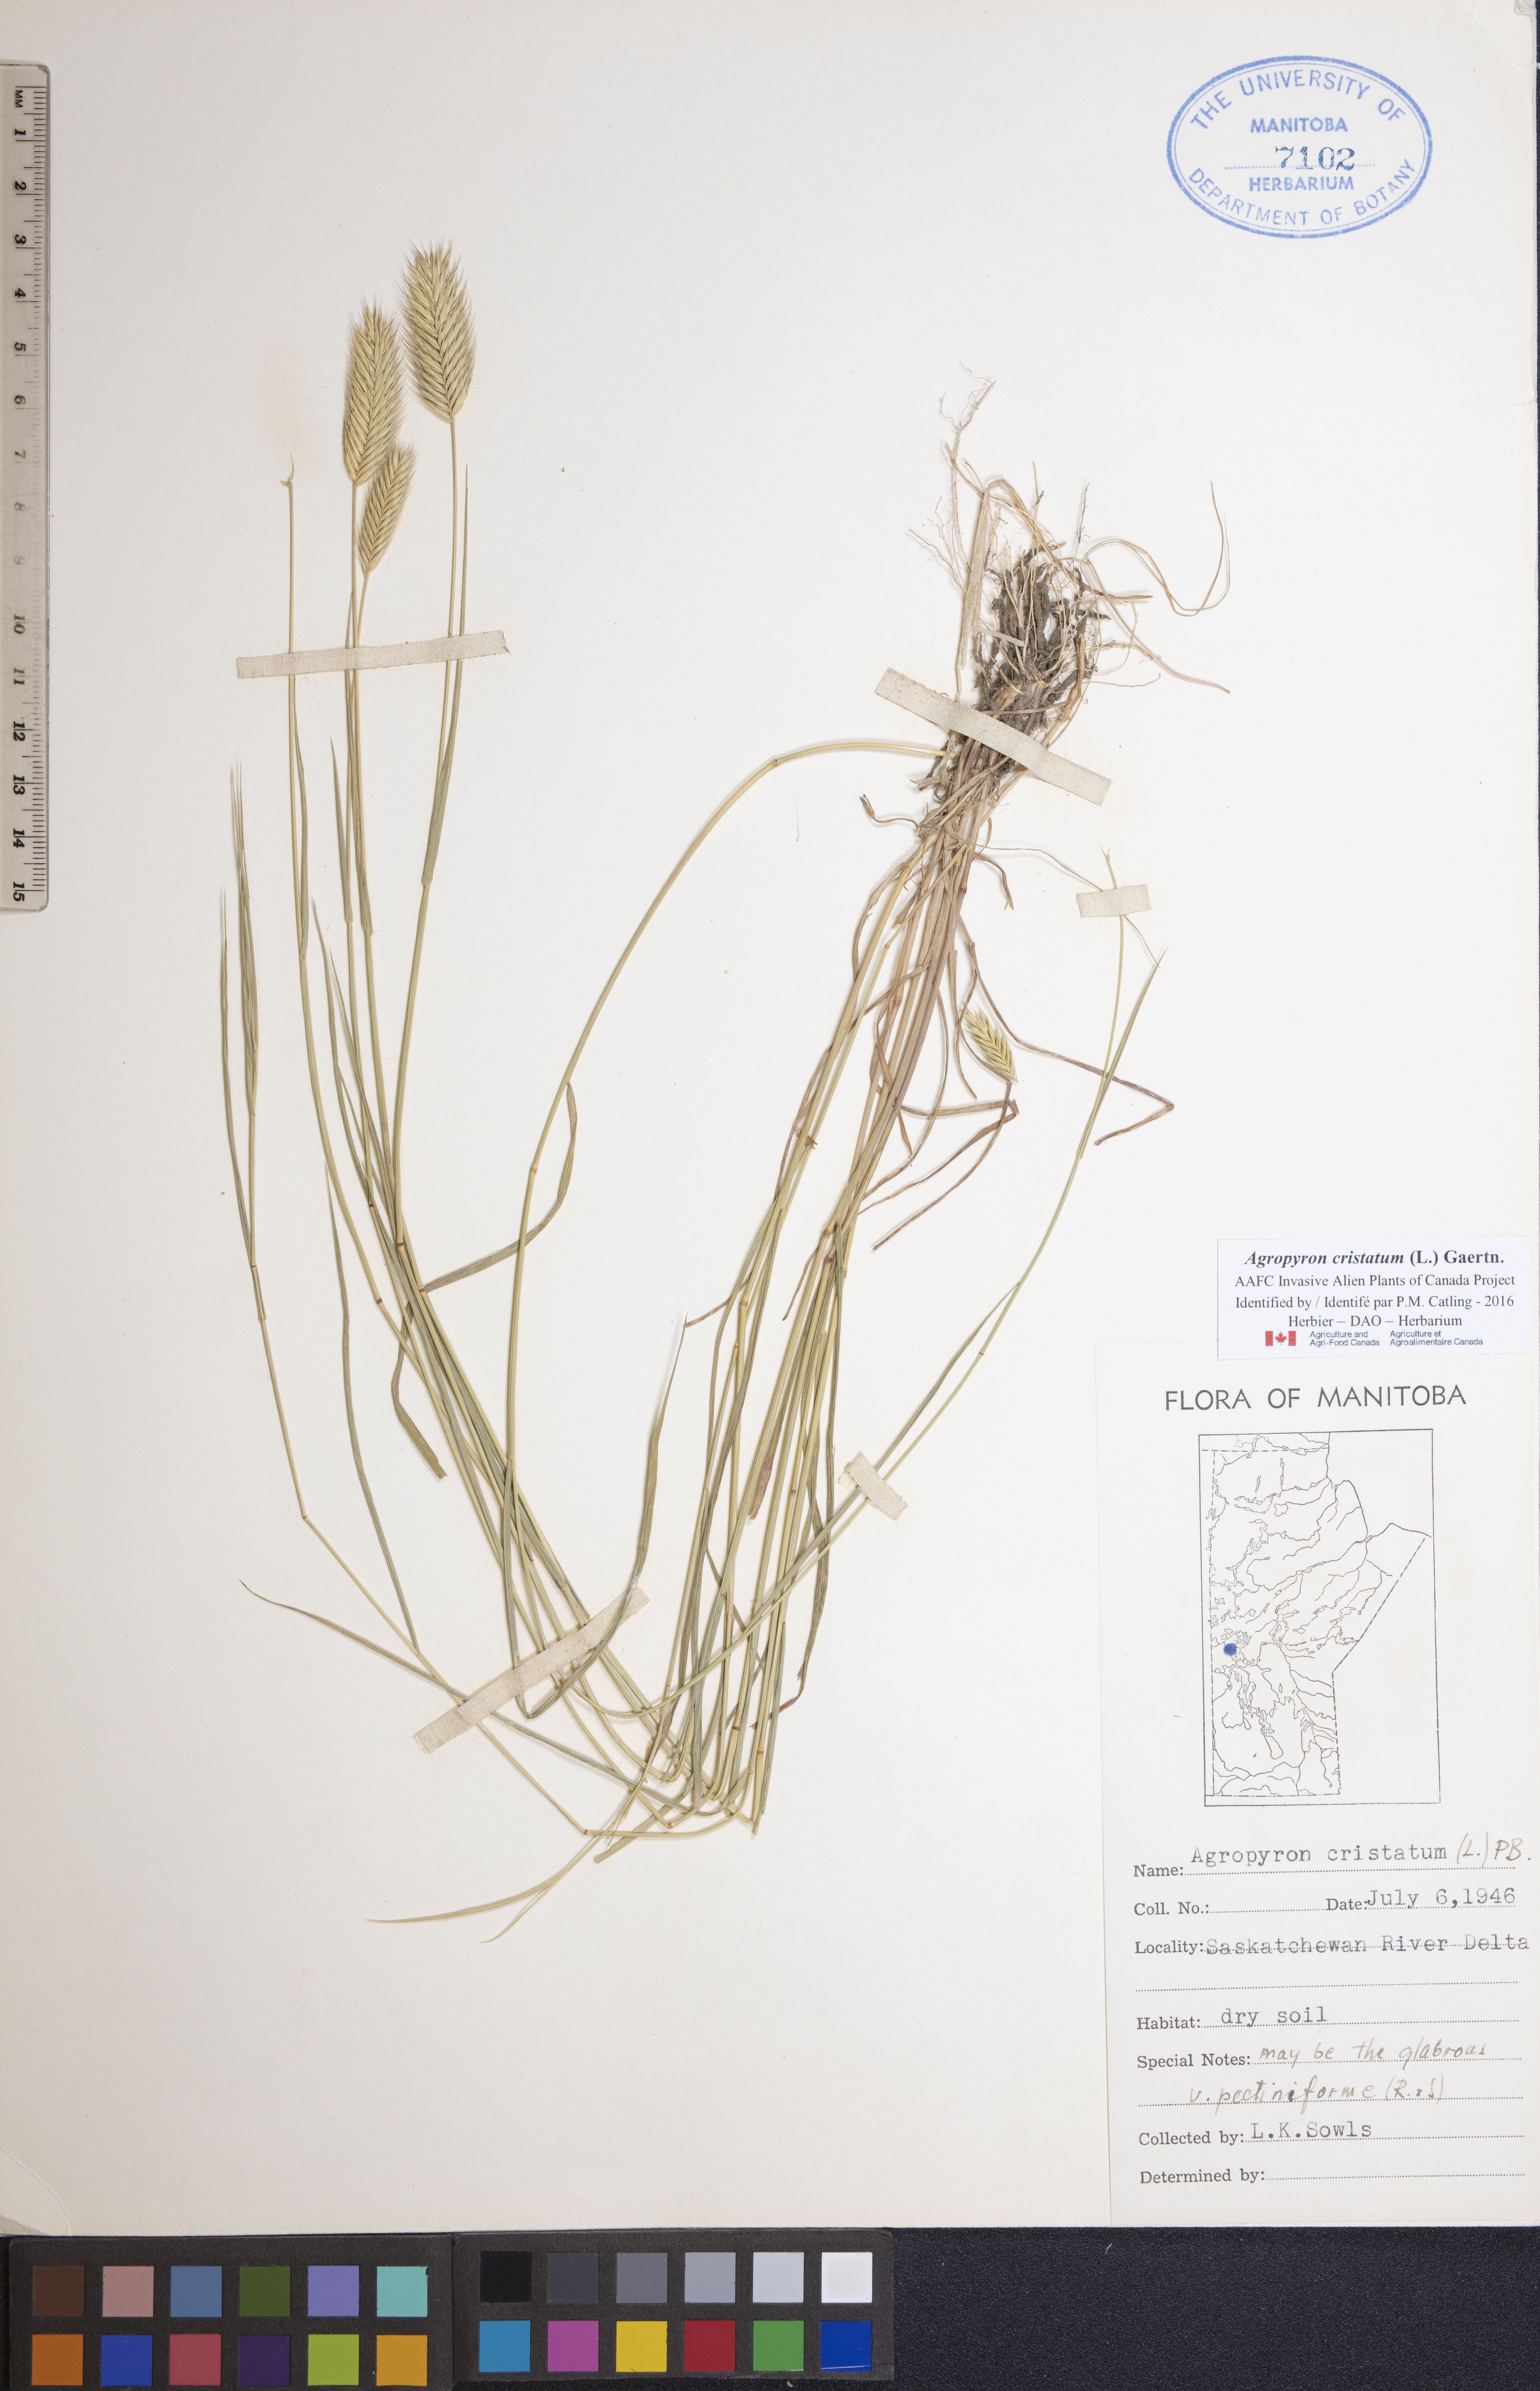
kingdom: Plantae
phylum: Tracheophyta
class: Liliopsida
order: Poales
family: Poaceae
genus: Agropyron
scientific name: Agropyron cristatum
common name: Crested wheatgrass
